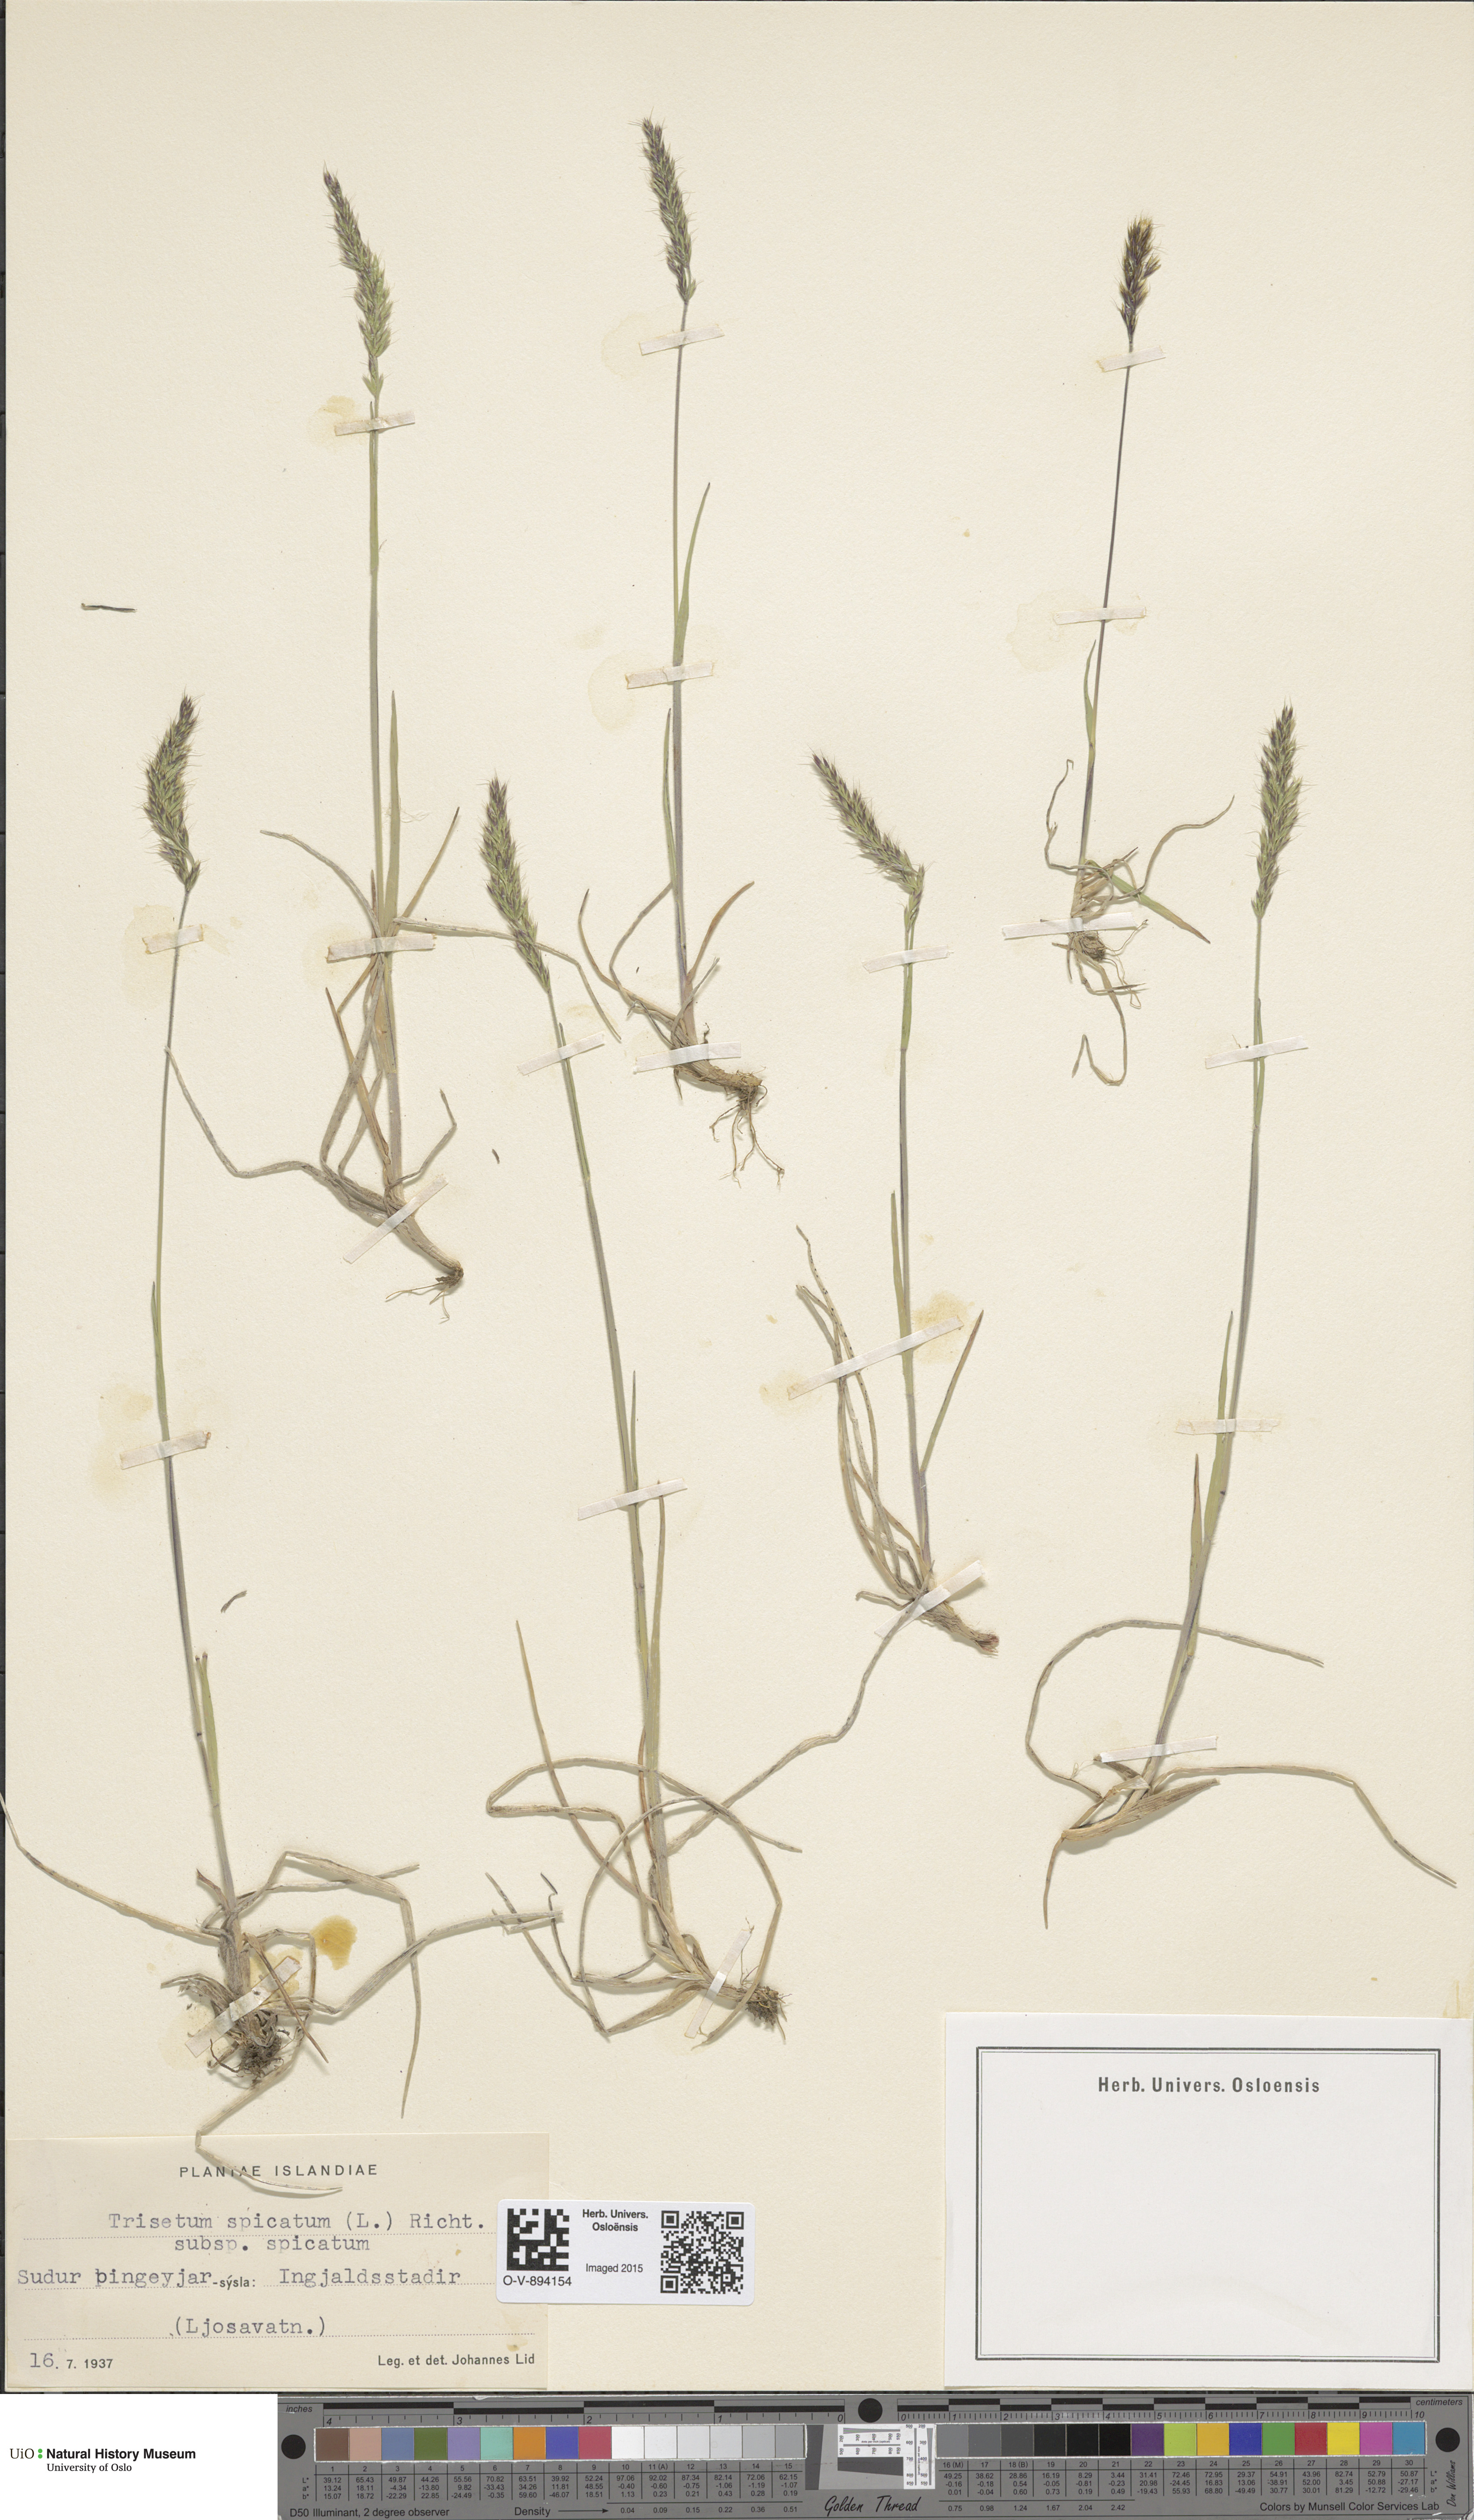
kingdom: Plantae
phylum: Tracheophyta
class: Liliopsida
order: Poales
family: Poaceae
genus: Koeleria
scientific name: Koeleria spicata
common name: Mountain trisetum
